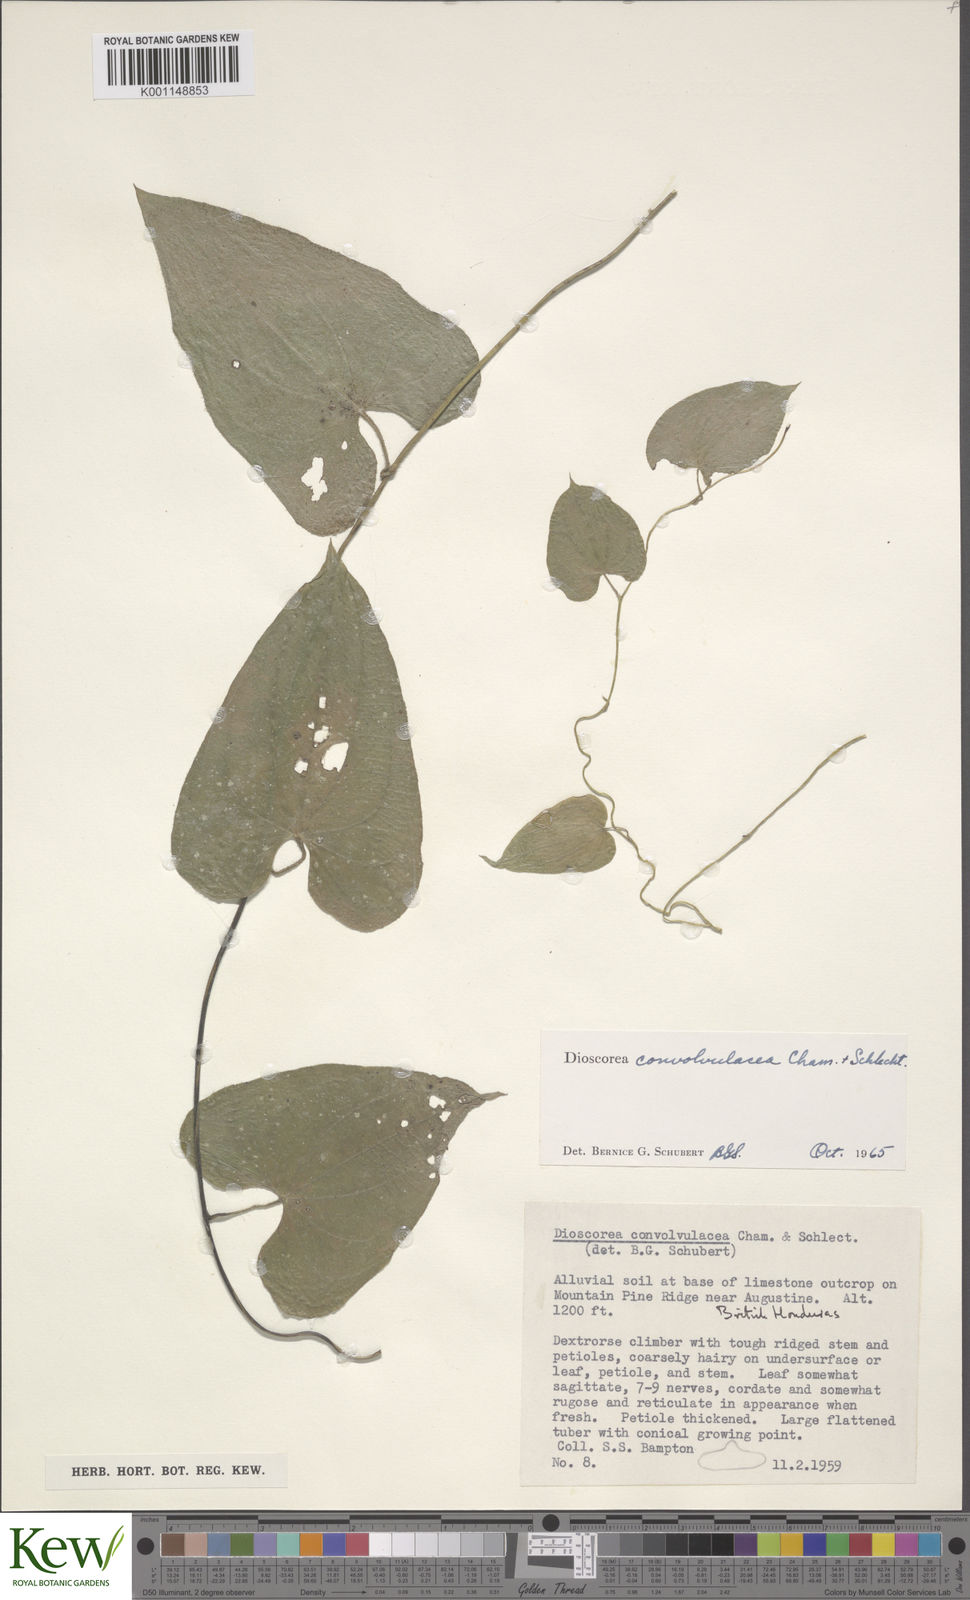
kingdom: Plantae
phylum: Tracheophyta
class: Liliopsida
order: Dioscoreales
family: Dioscoreaceae
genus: Dioscorea
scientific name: Dioscorea
